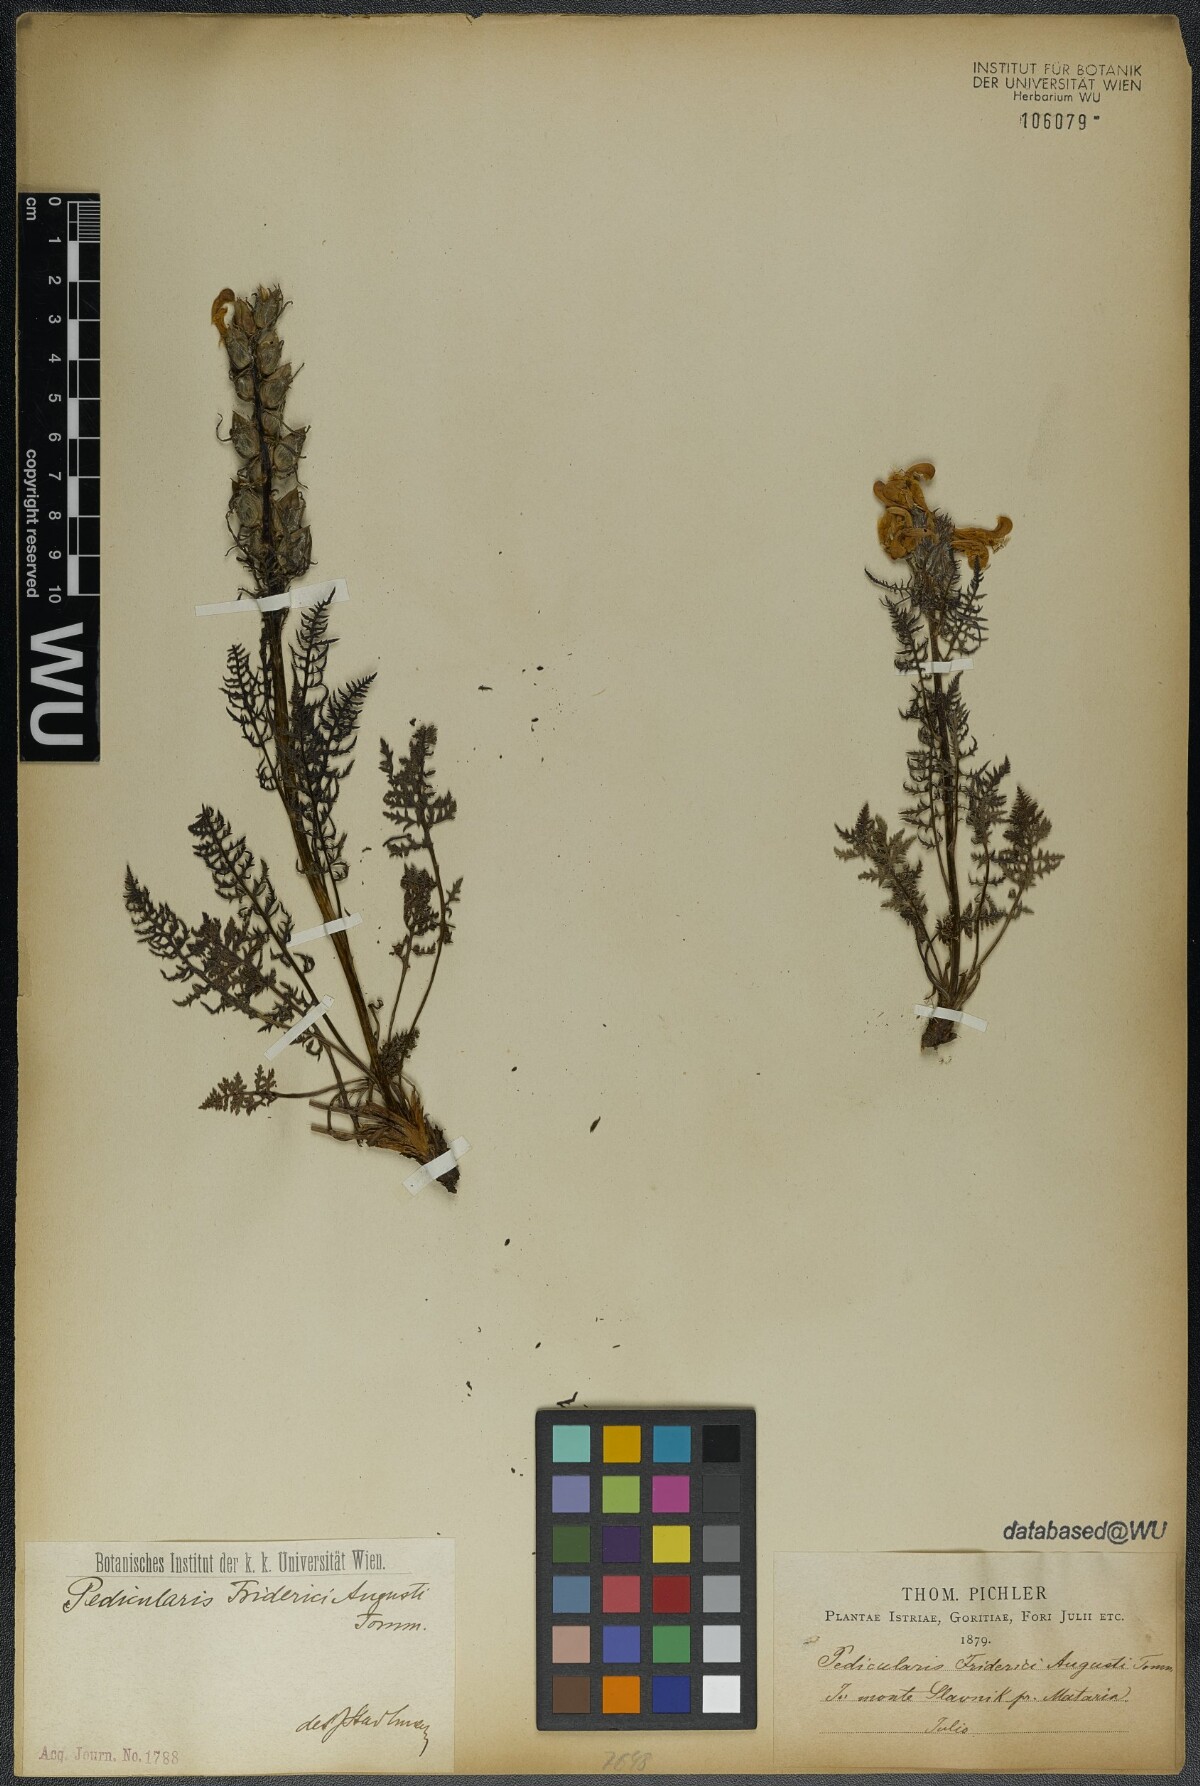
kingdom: Plantae
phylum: Tracheophyta
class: Magnoliopsida
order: Lamiales
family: Orobanchaceae
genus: Pedicularis
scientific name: Pedicularis friderici-augusti
